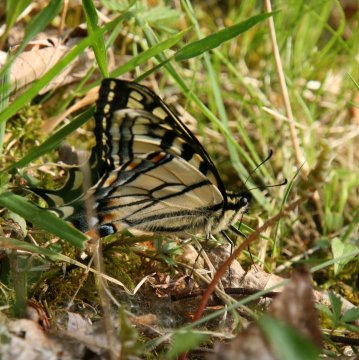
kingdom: Animalia
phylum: Arthropoda
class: Insecta
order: Lepidoptera
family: Papilionidae
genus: Pterourus
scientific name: Pterourus canadensis
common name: Canadian Tiger Swallowtail
